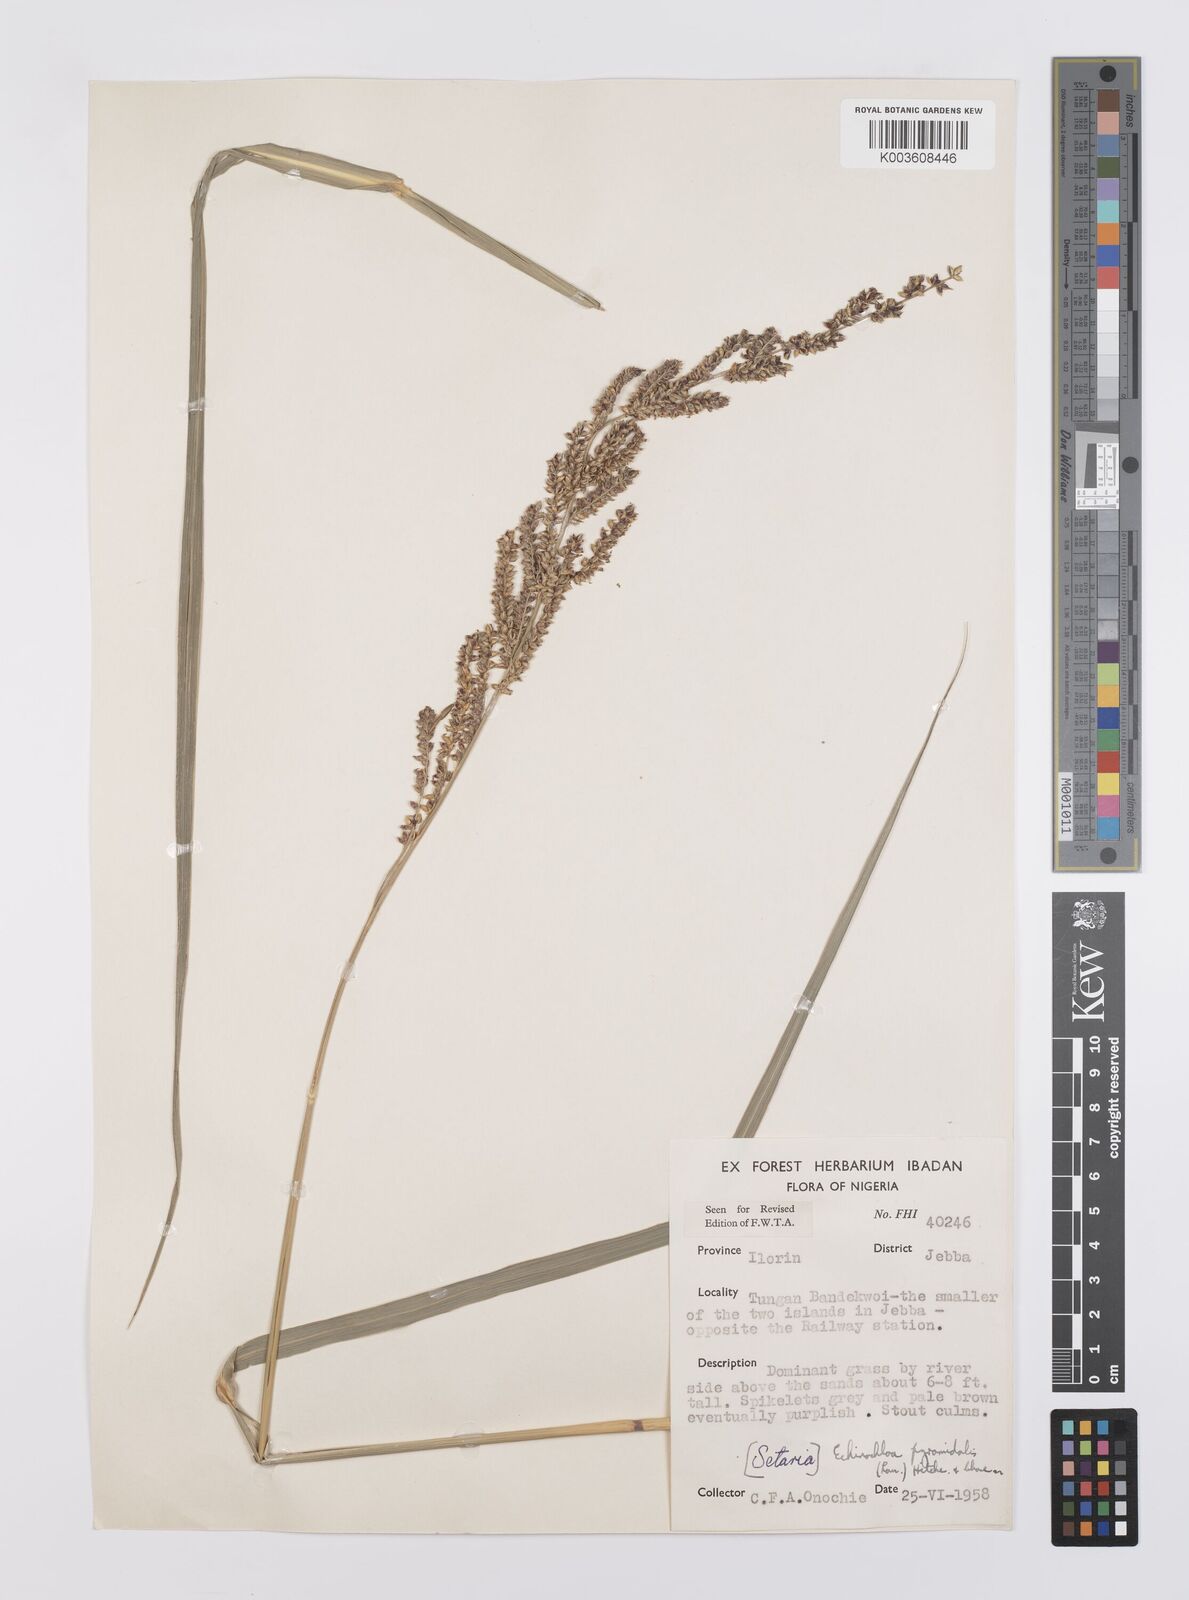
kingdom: Plantae
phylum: Tracheophyta
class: Liliopsida
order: Poales
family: Poaceae
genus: Echinochloa
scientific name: Echinochloa pyramidalis
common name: Antelope grass
